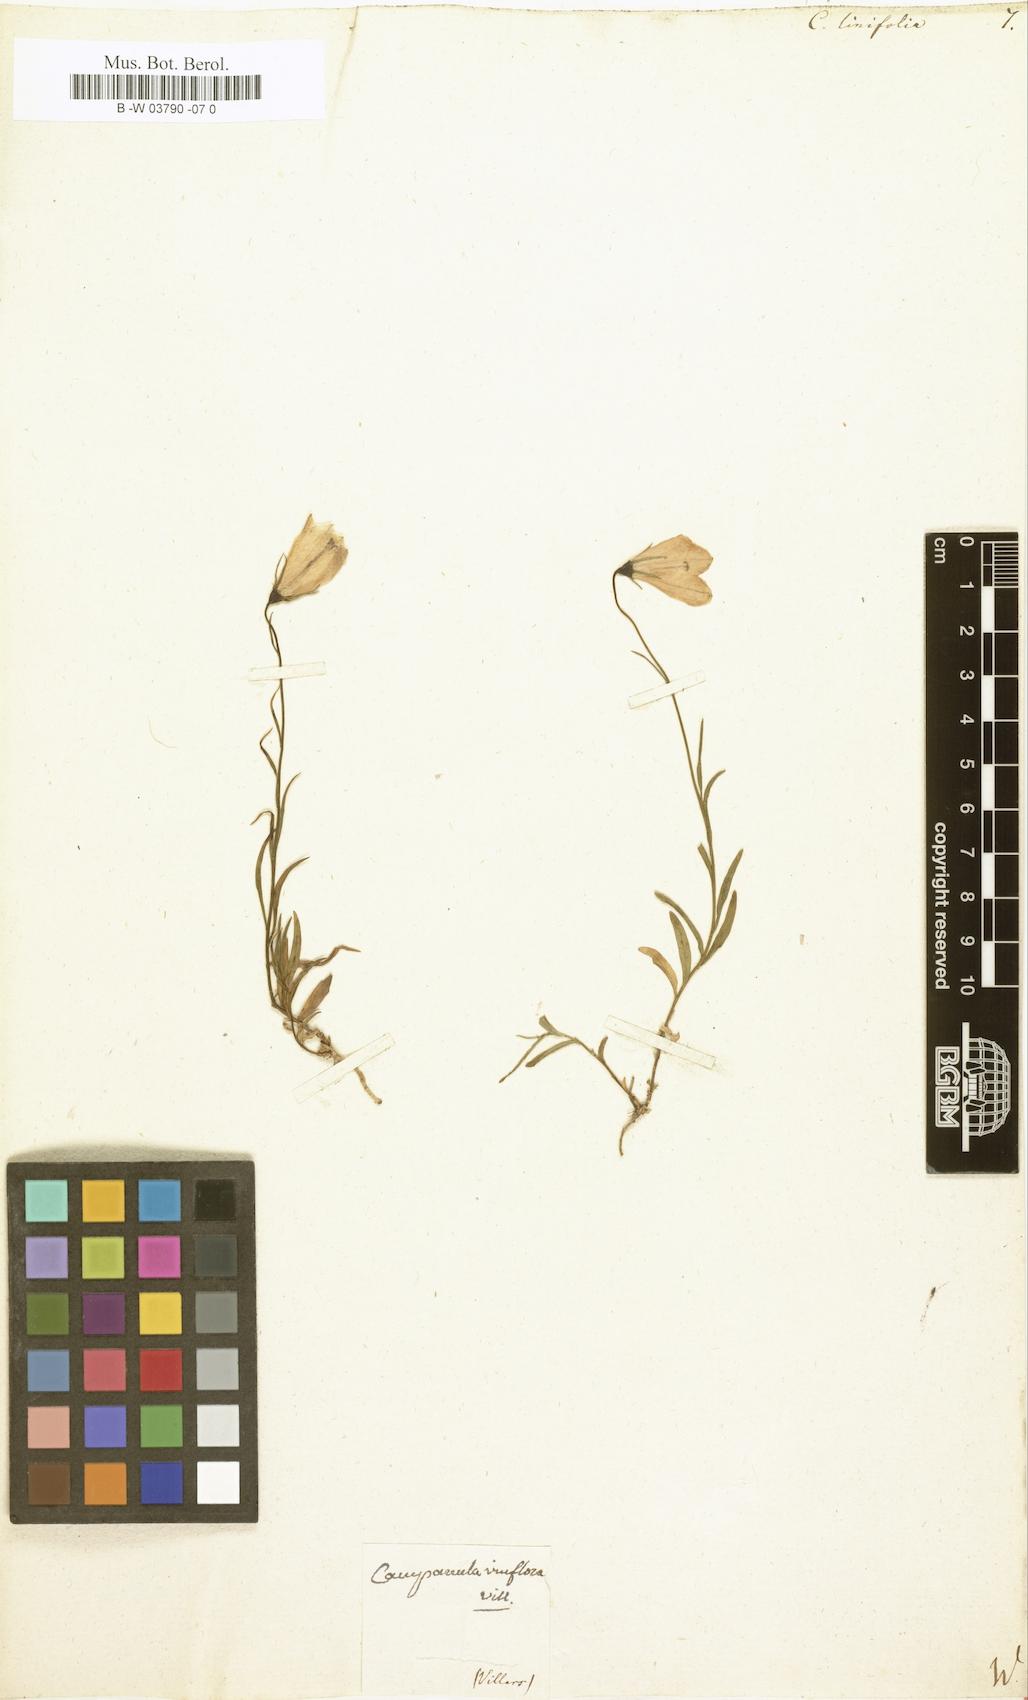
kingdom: Plantae
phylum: Tracheophyta
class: Magnoliopsida
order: Asterales
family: Campanulaceae
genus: Campanula
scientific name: Campanula
